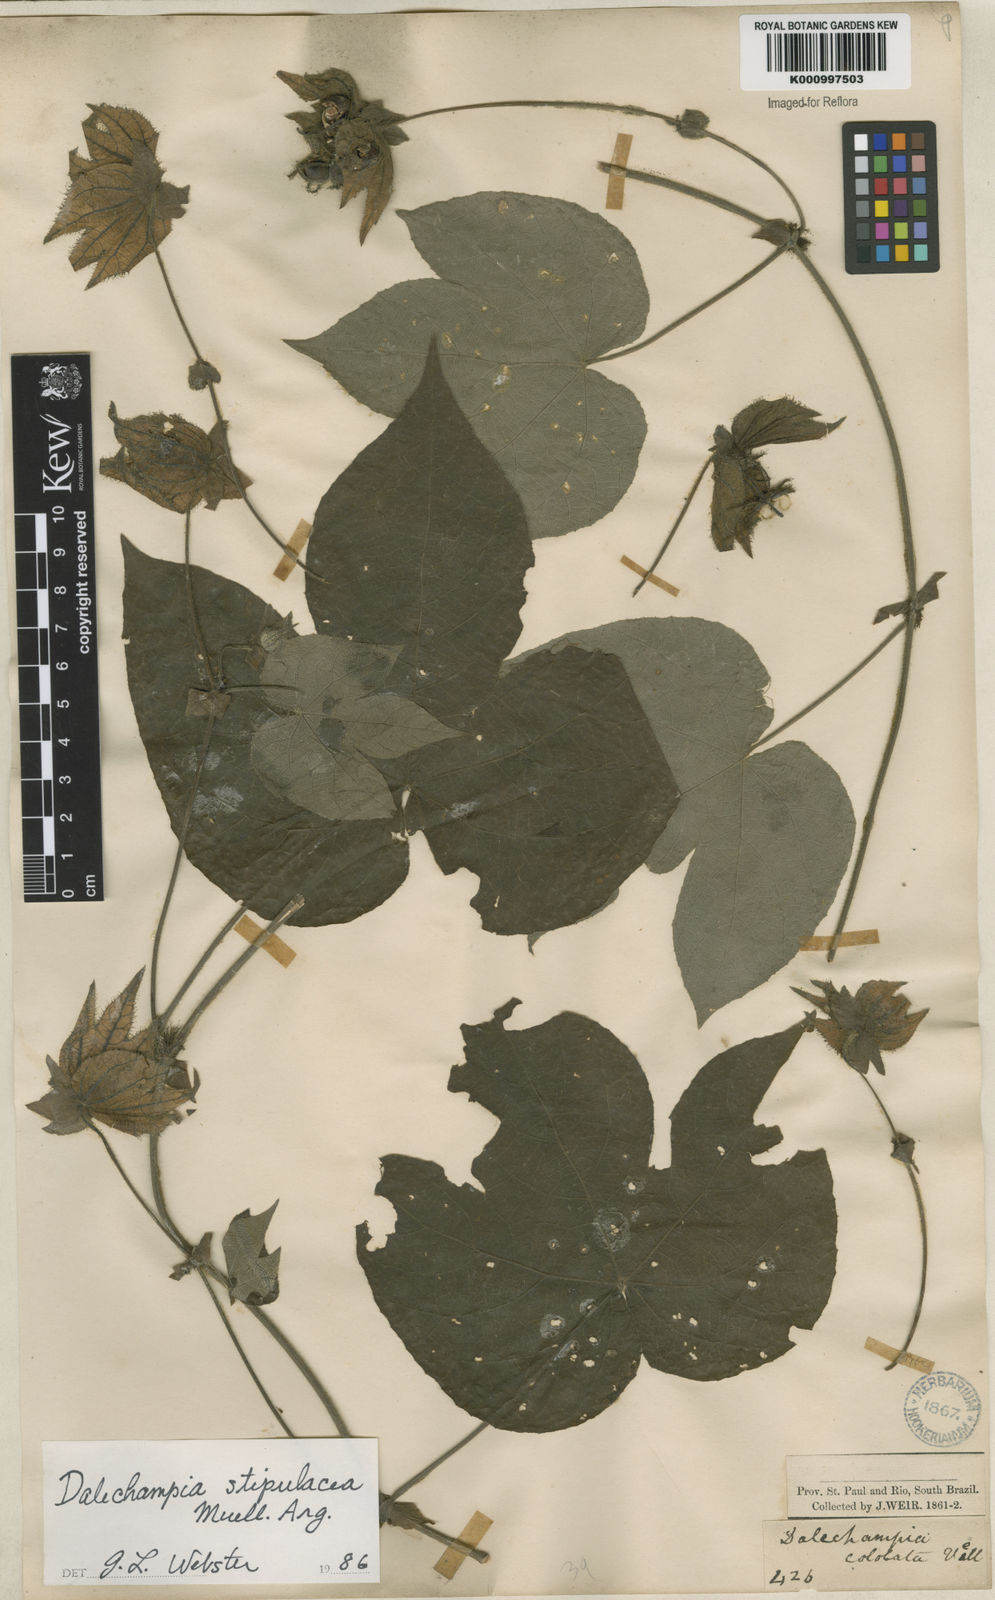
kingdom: Plantae
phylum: Tracheophyta
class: Magnoliopsida
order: Malpighiales
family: Euphorbiaceae
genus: Dalechampia
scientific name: Dalechampia
